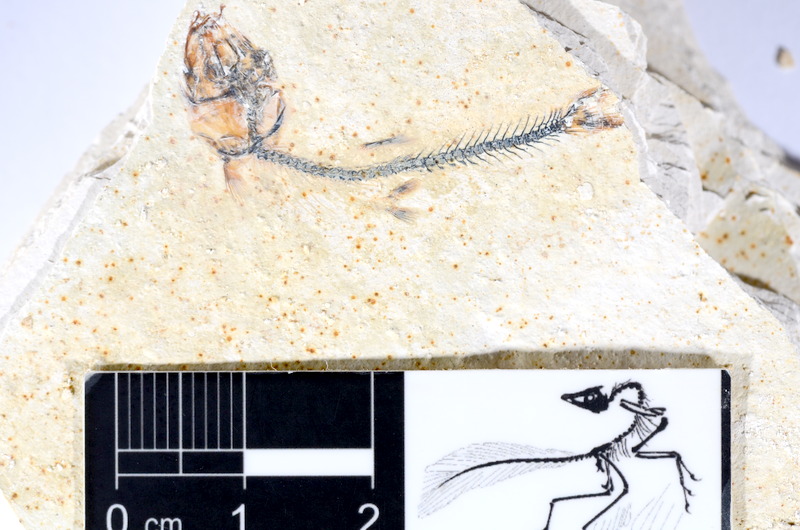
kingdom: Animalia
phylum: Chordata
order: Salmoniformes
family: Orthogonikleithridae
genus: Orthogonikleithrus
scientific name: Orthogonikleithrus hoelli
